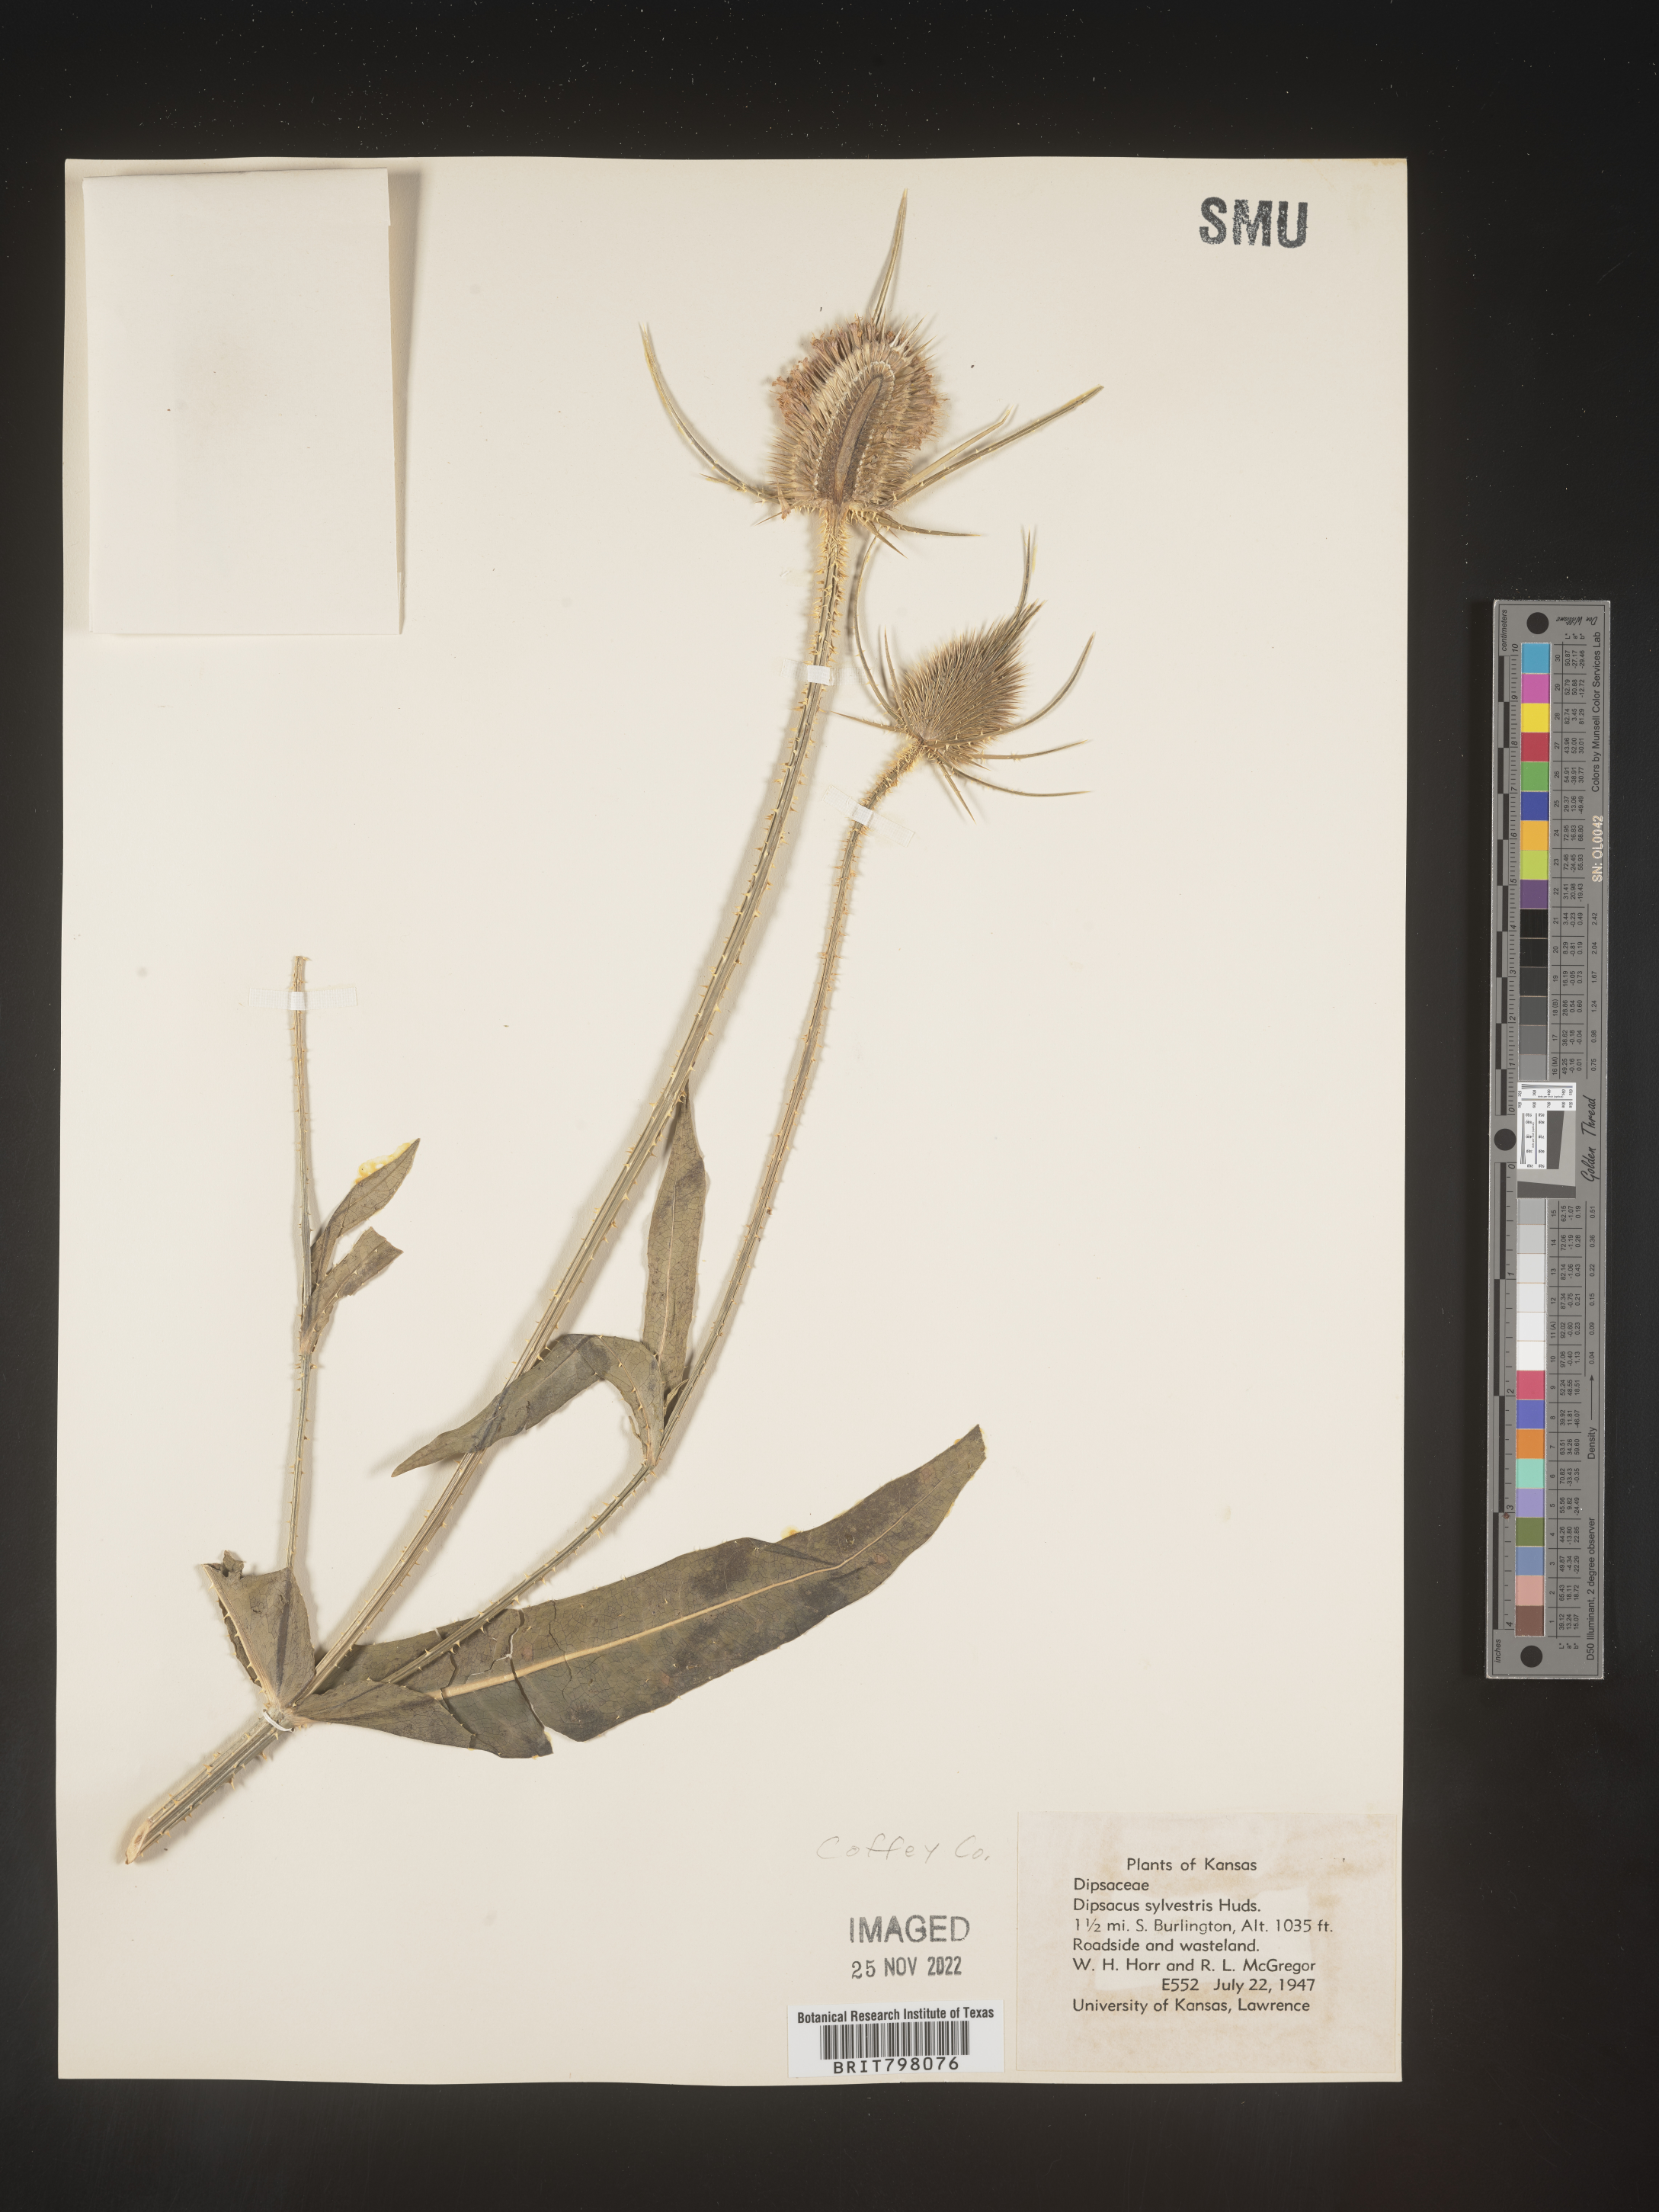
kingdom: Plantae
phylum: Tracheophyta
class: Magnoliopsida
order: Dipsacales
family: Caprifoliaceae
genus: Dipsacus
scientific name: Dipsacus fullonum
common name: Teasel
